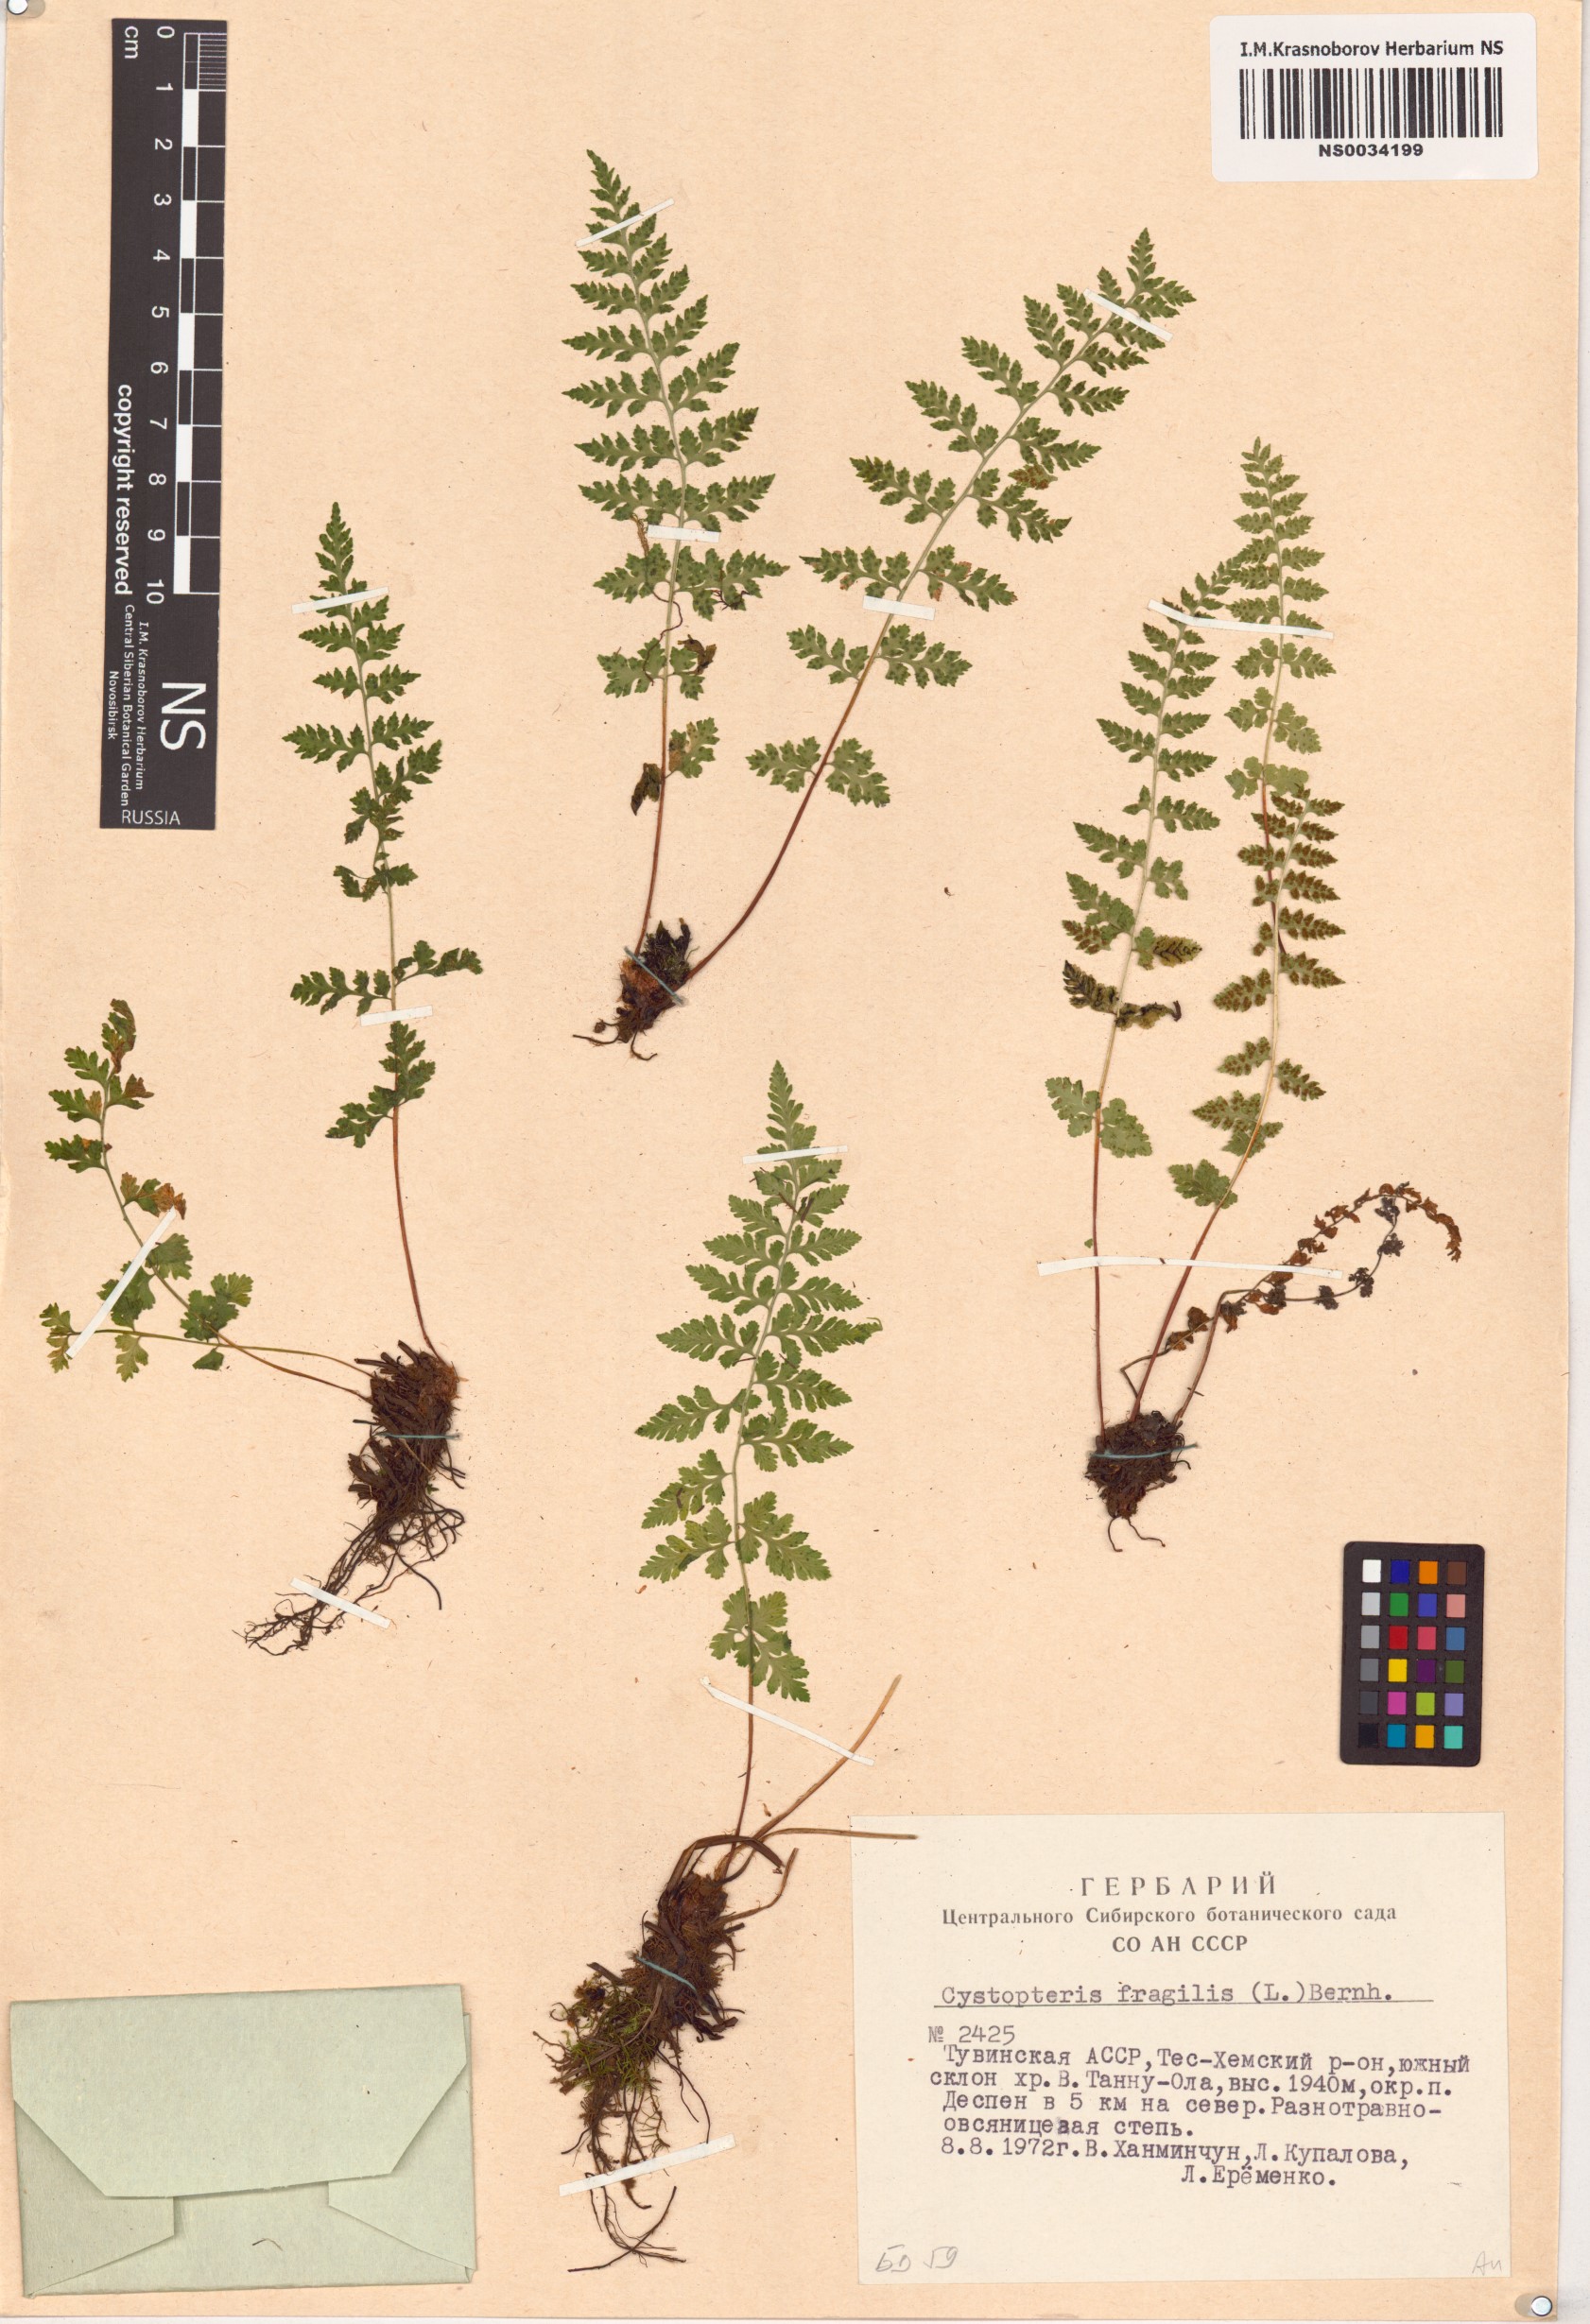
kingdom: Plantae
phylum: Tracheophyta
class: Polypodiopsida
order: Polypodiales
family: Cystopteridaceae
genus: Cystopteris
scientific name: Cystopteris fragilis
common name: Brittle bladder fern
